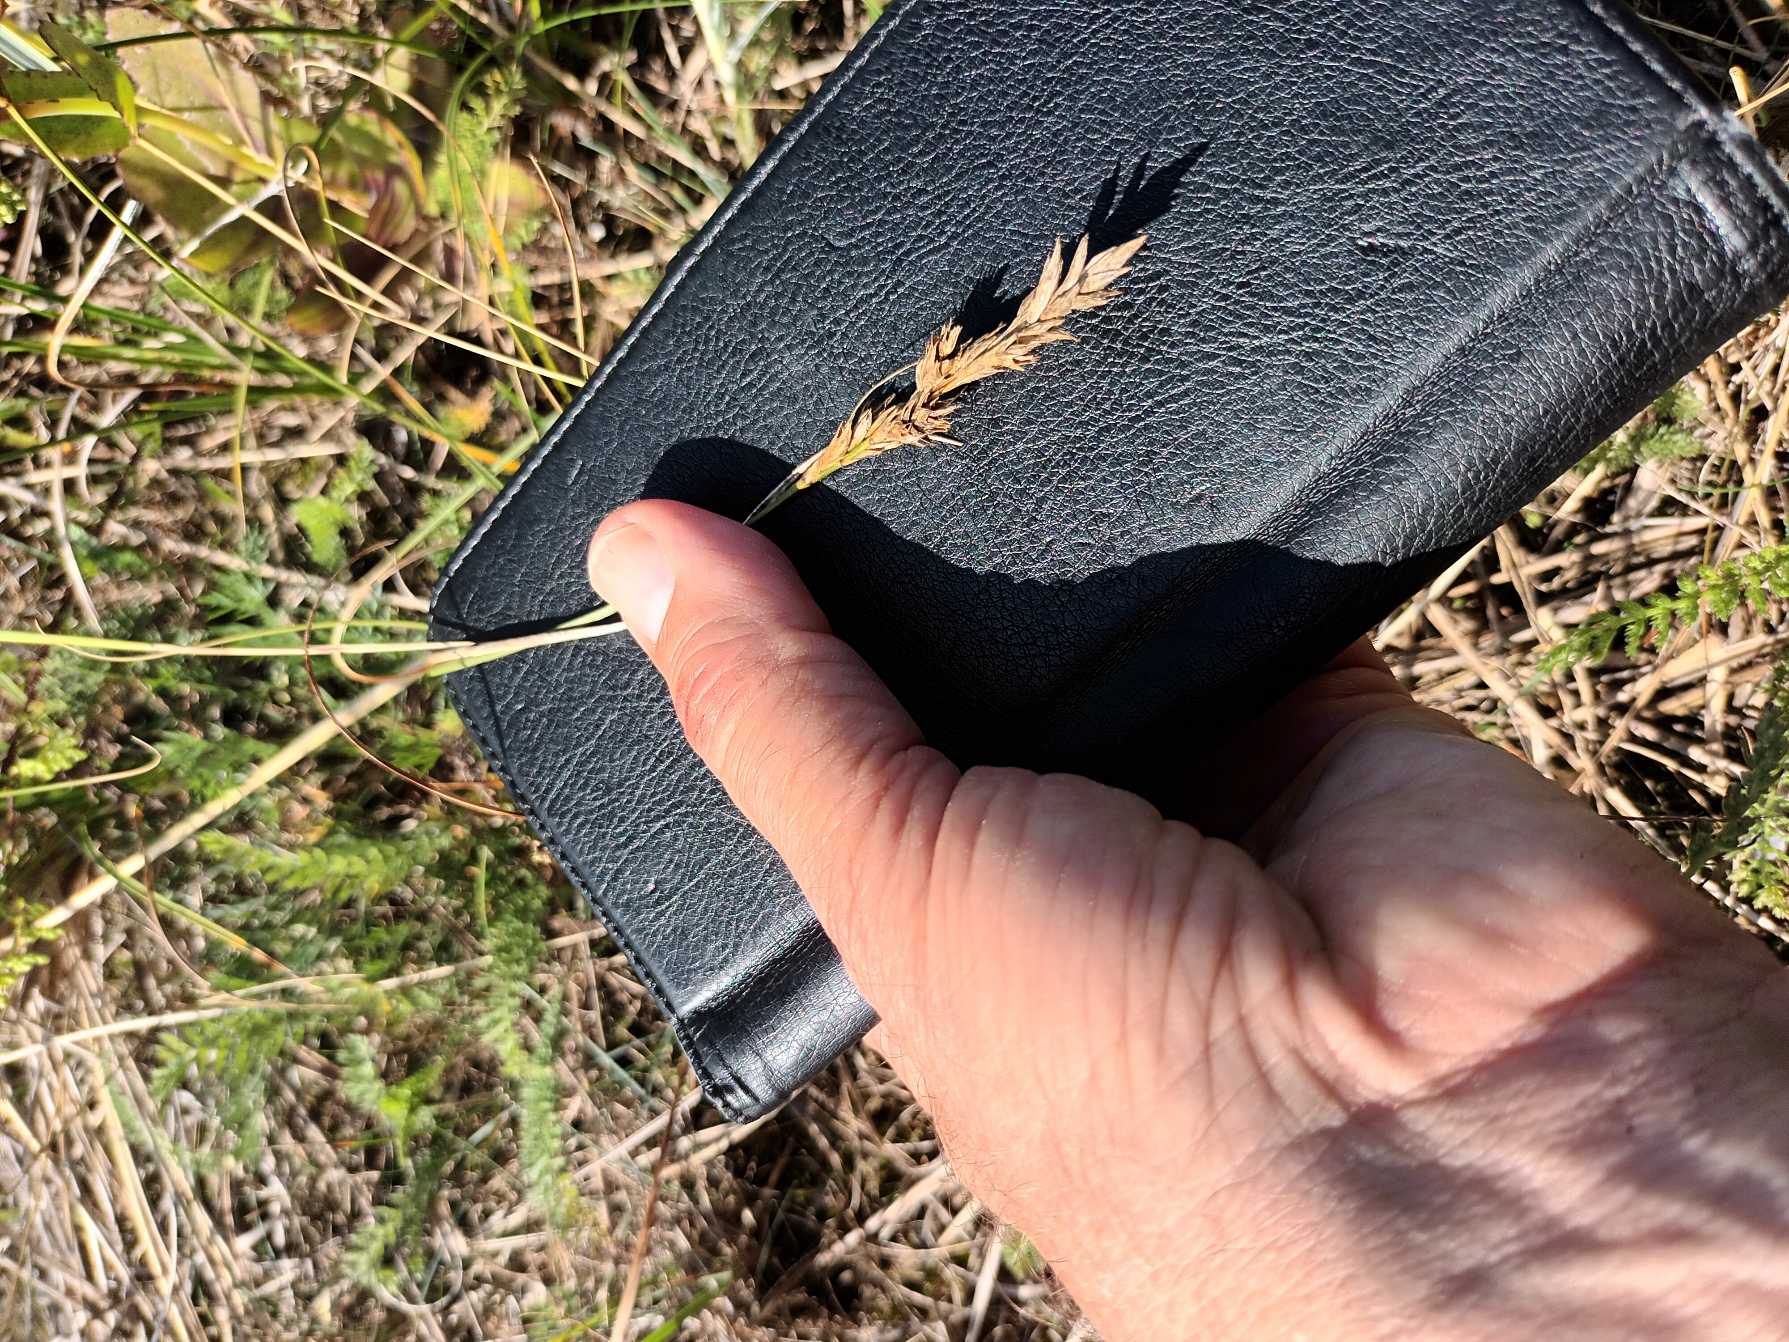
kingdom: Plantae
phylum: Tracheophyta
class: Liliopsida
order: Poales
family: Cyperaceae
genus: Carex
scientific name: Carex arenaria
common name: Sand-star
